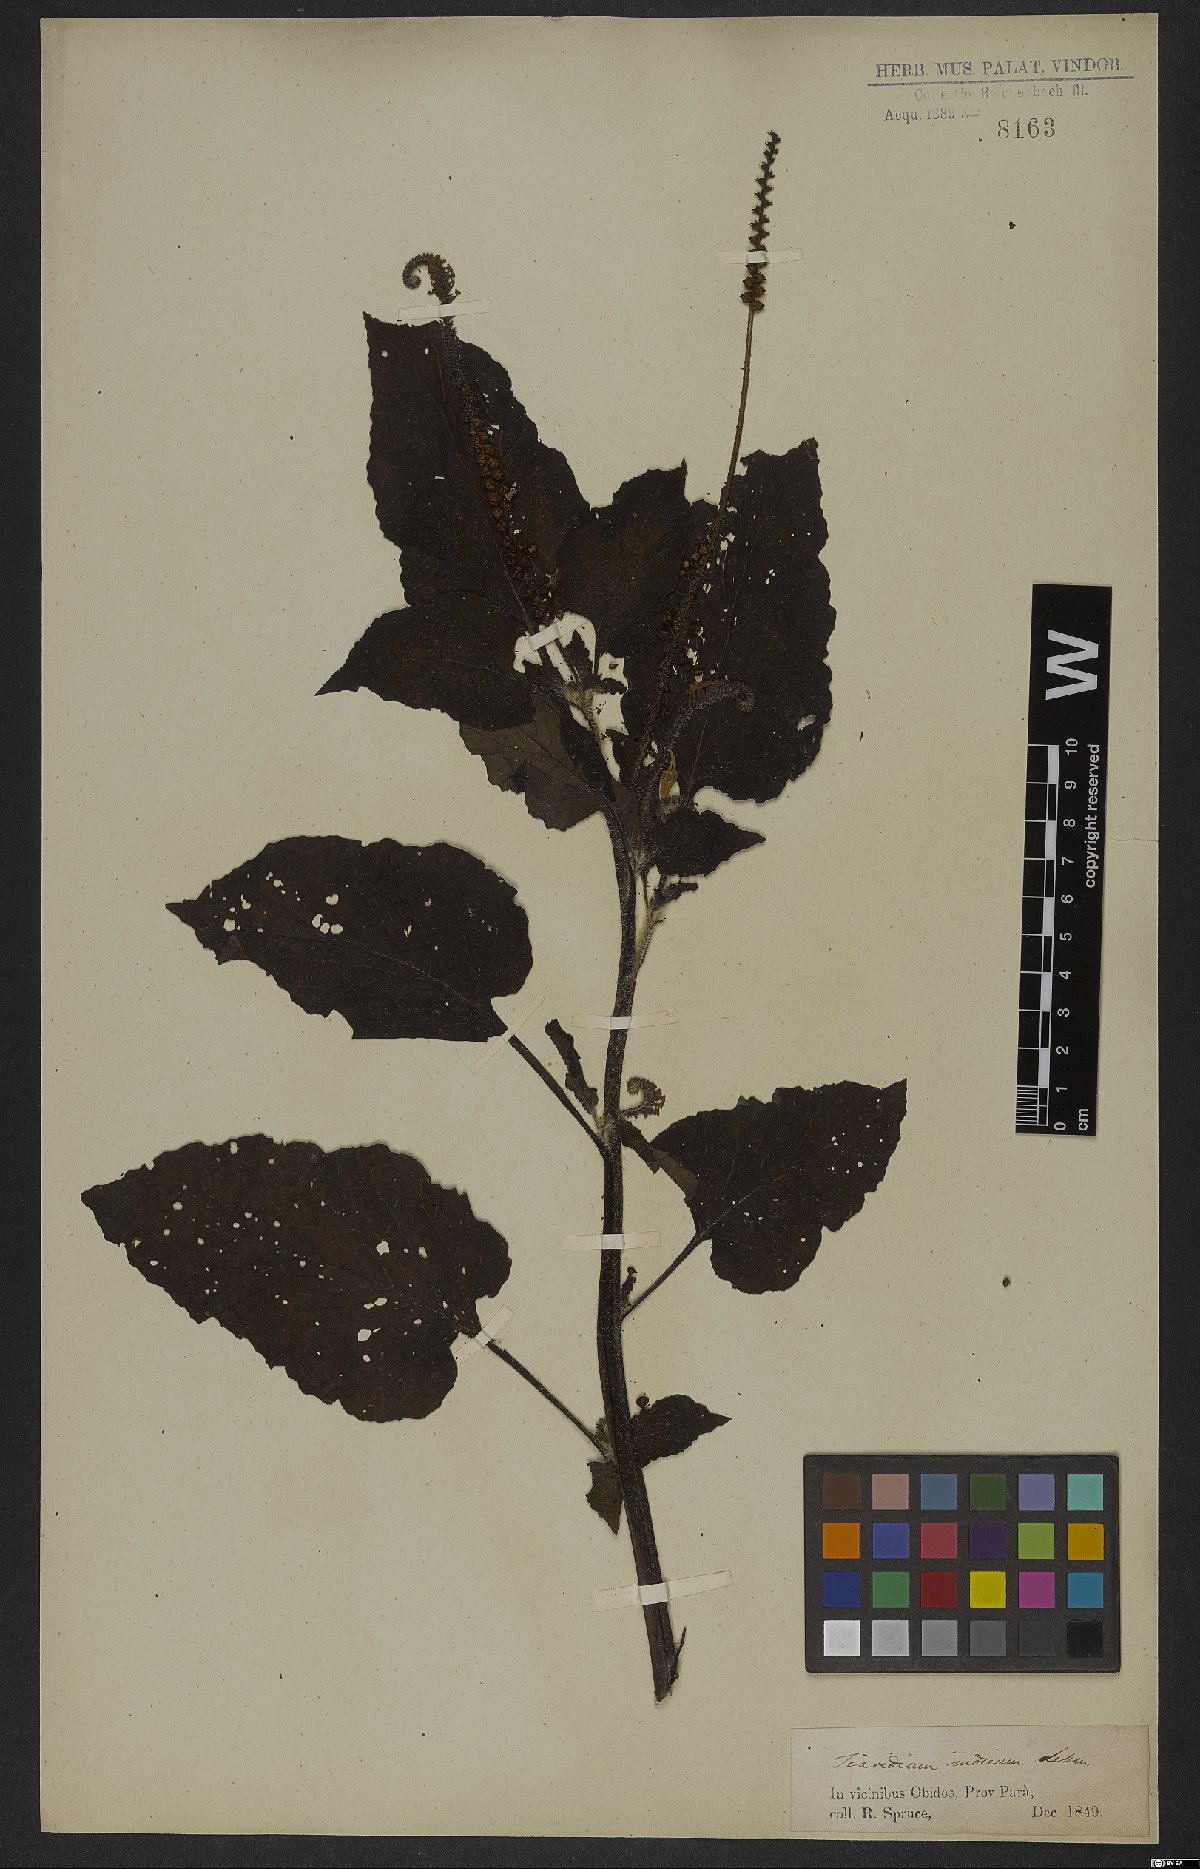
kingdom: Plantae
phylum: Tracheophyta
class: Magnoliopsida
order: Boraginales
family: Heliotropiaceae
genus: Heliotropium
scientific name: Heliotropium indicum
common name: Indian heliotrope
